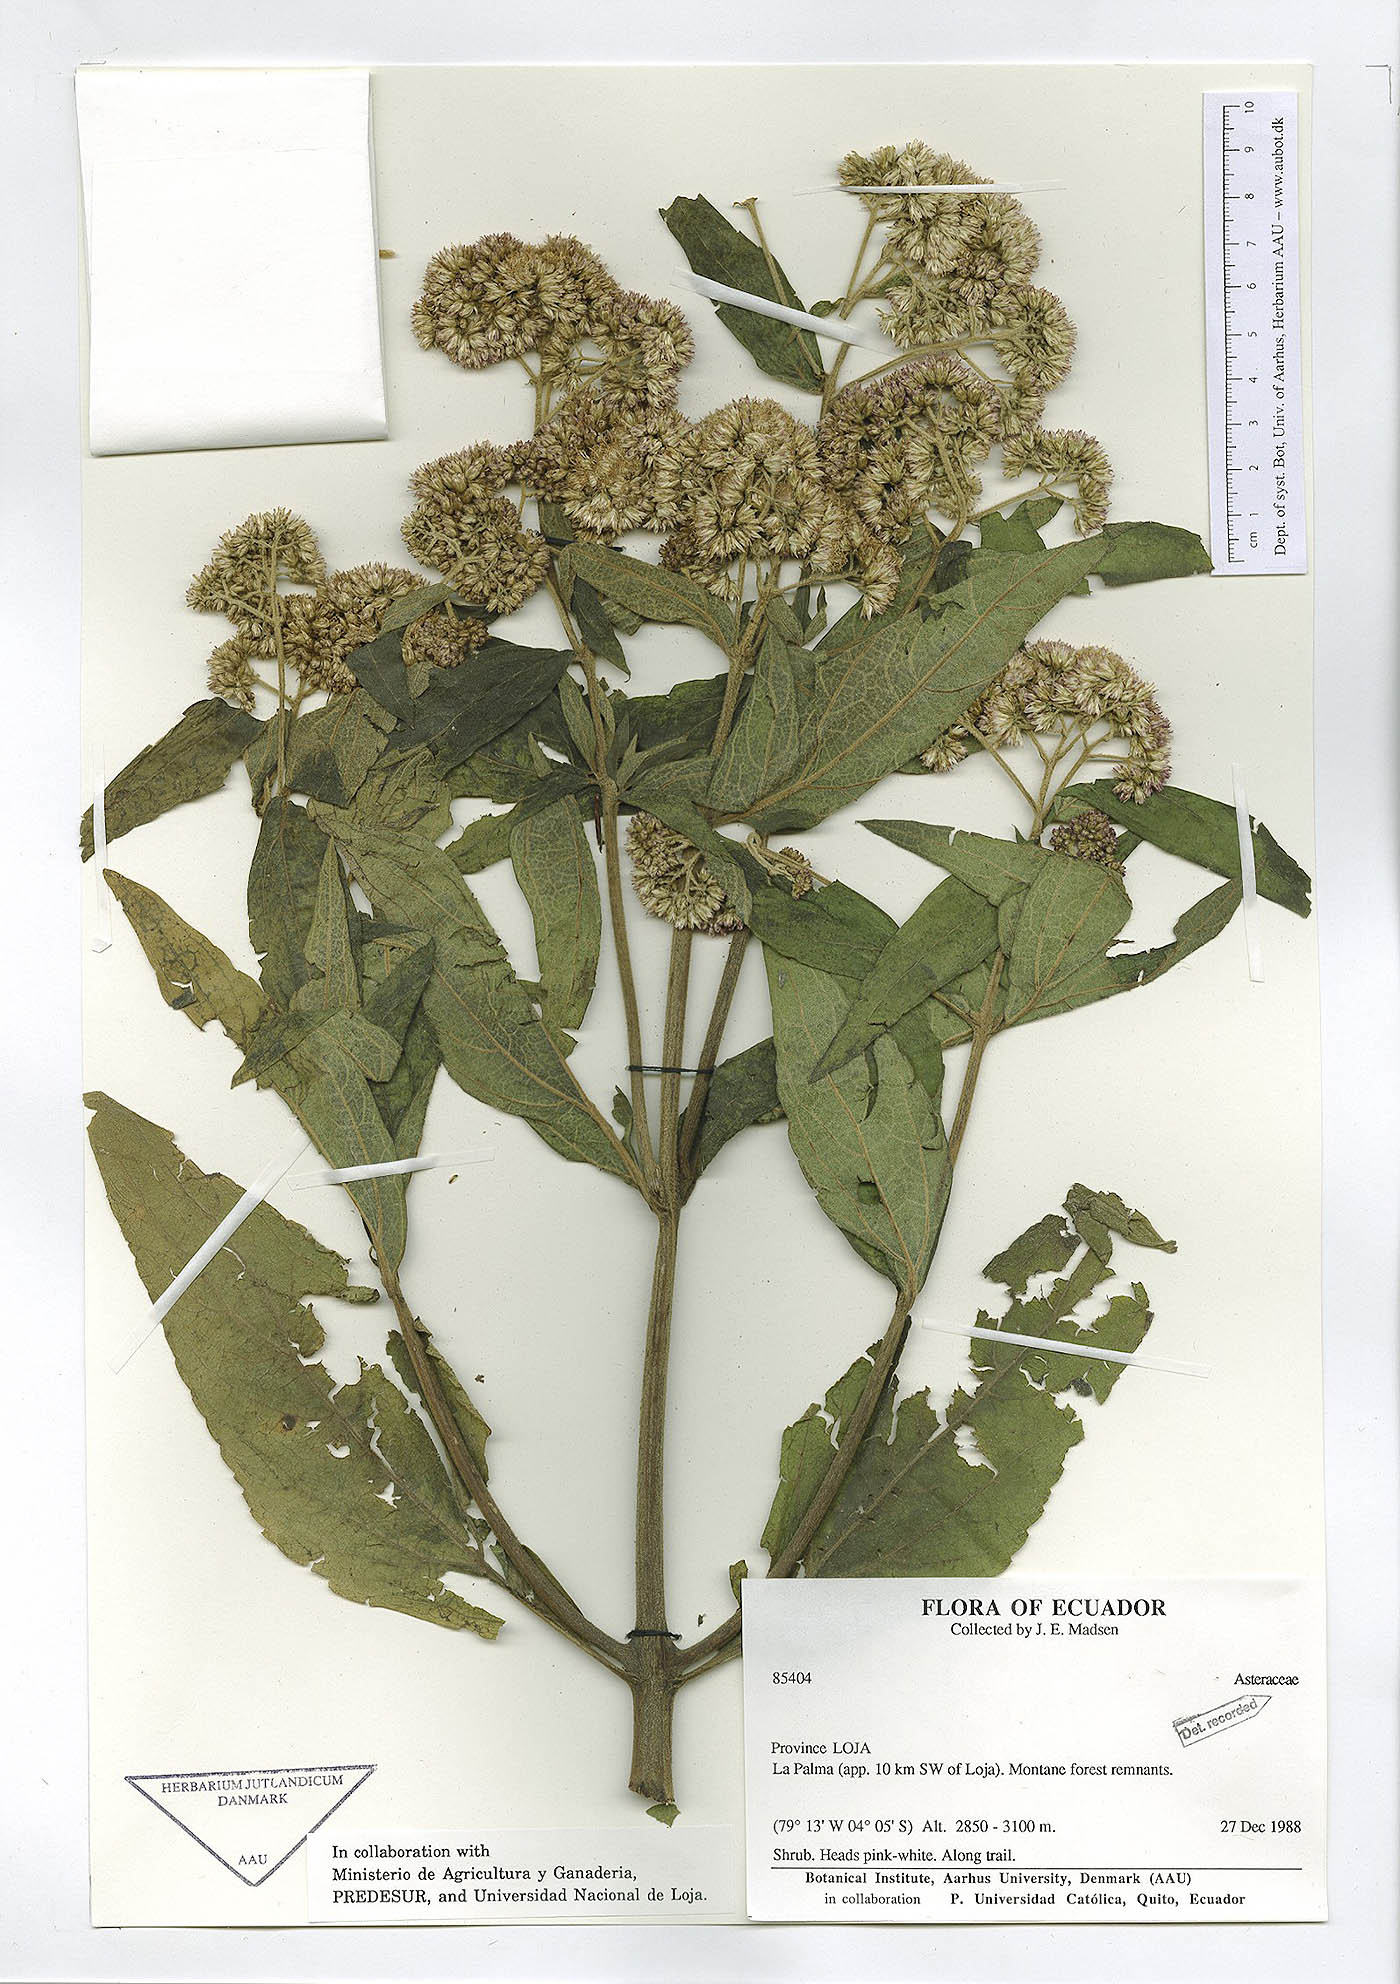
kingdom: Plantae
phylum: Tracheophyta
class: Magnoliopsida
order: Apiales
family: Apiaceae
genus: Eryngium
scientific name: Eryngium humile
